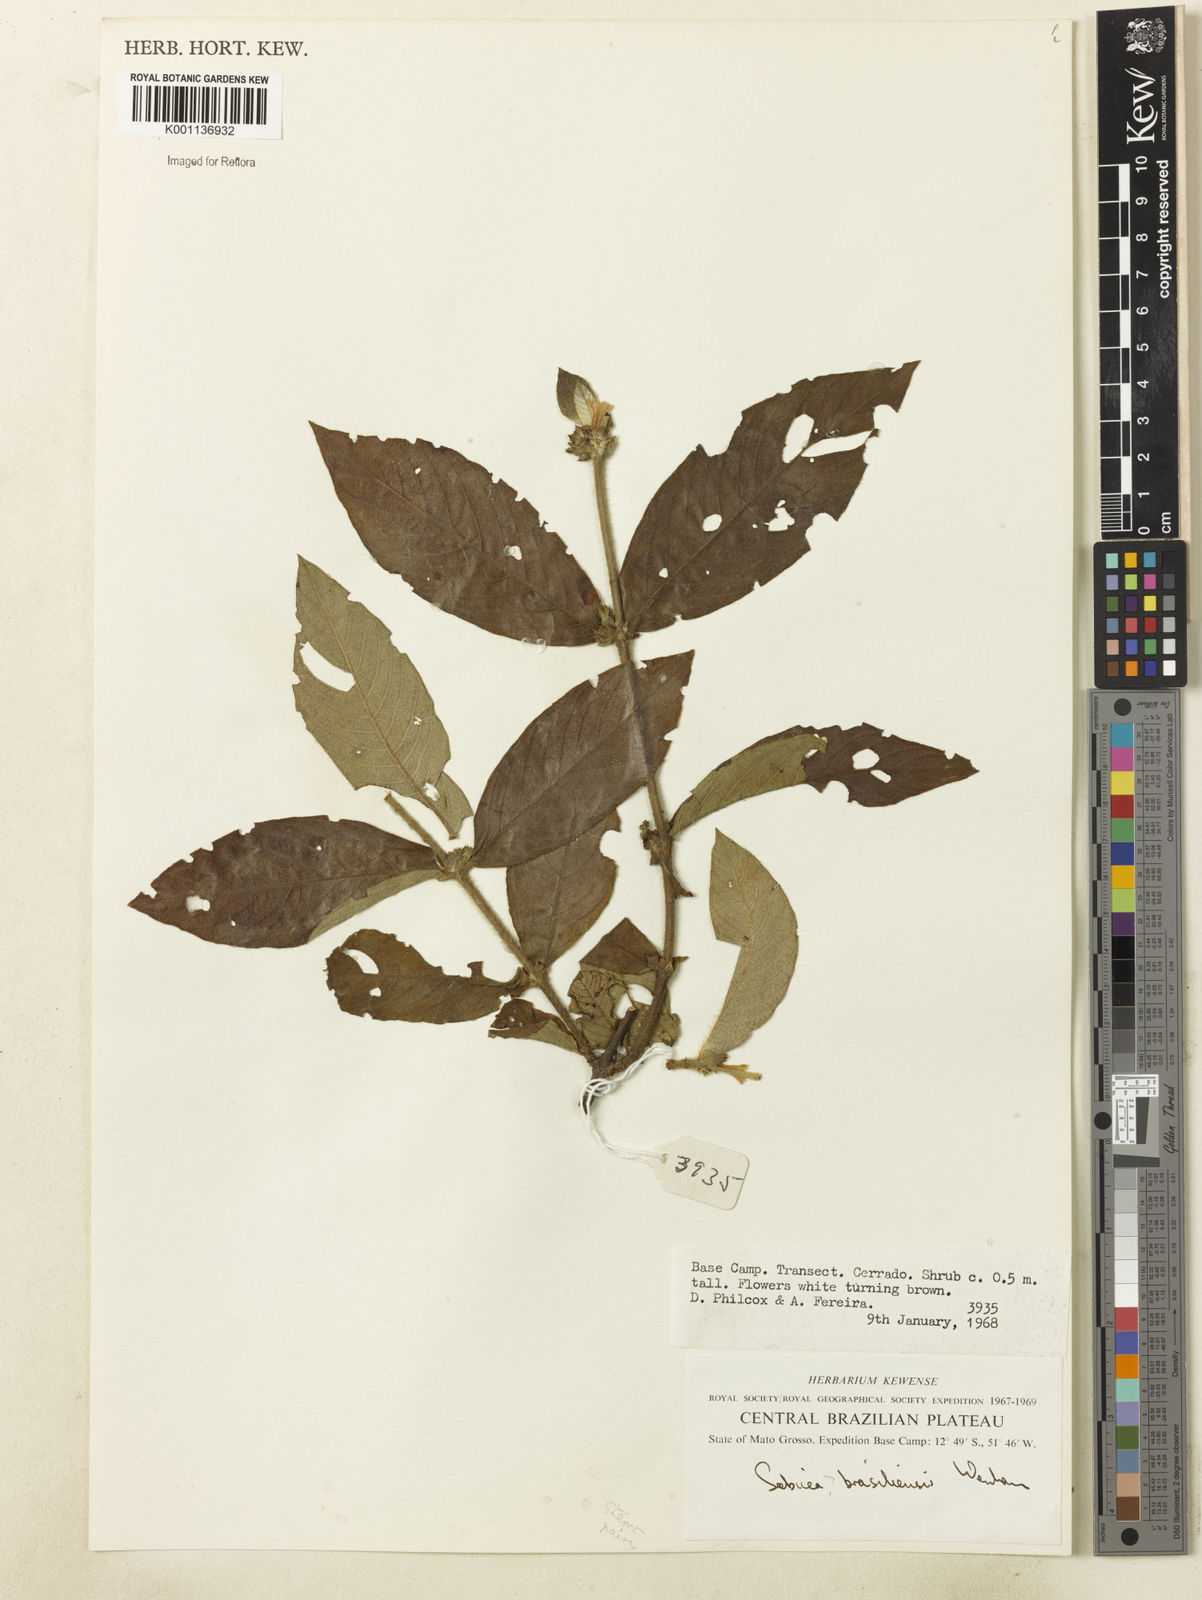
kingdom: Plantae
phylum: Tracheophyta
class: Magnoliopsida
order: Gentianales
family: Rubiaceae
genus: Sabicea
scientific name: Sabicea brasiliensis
